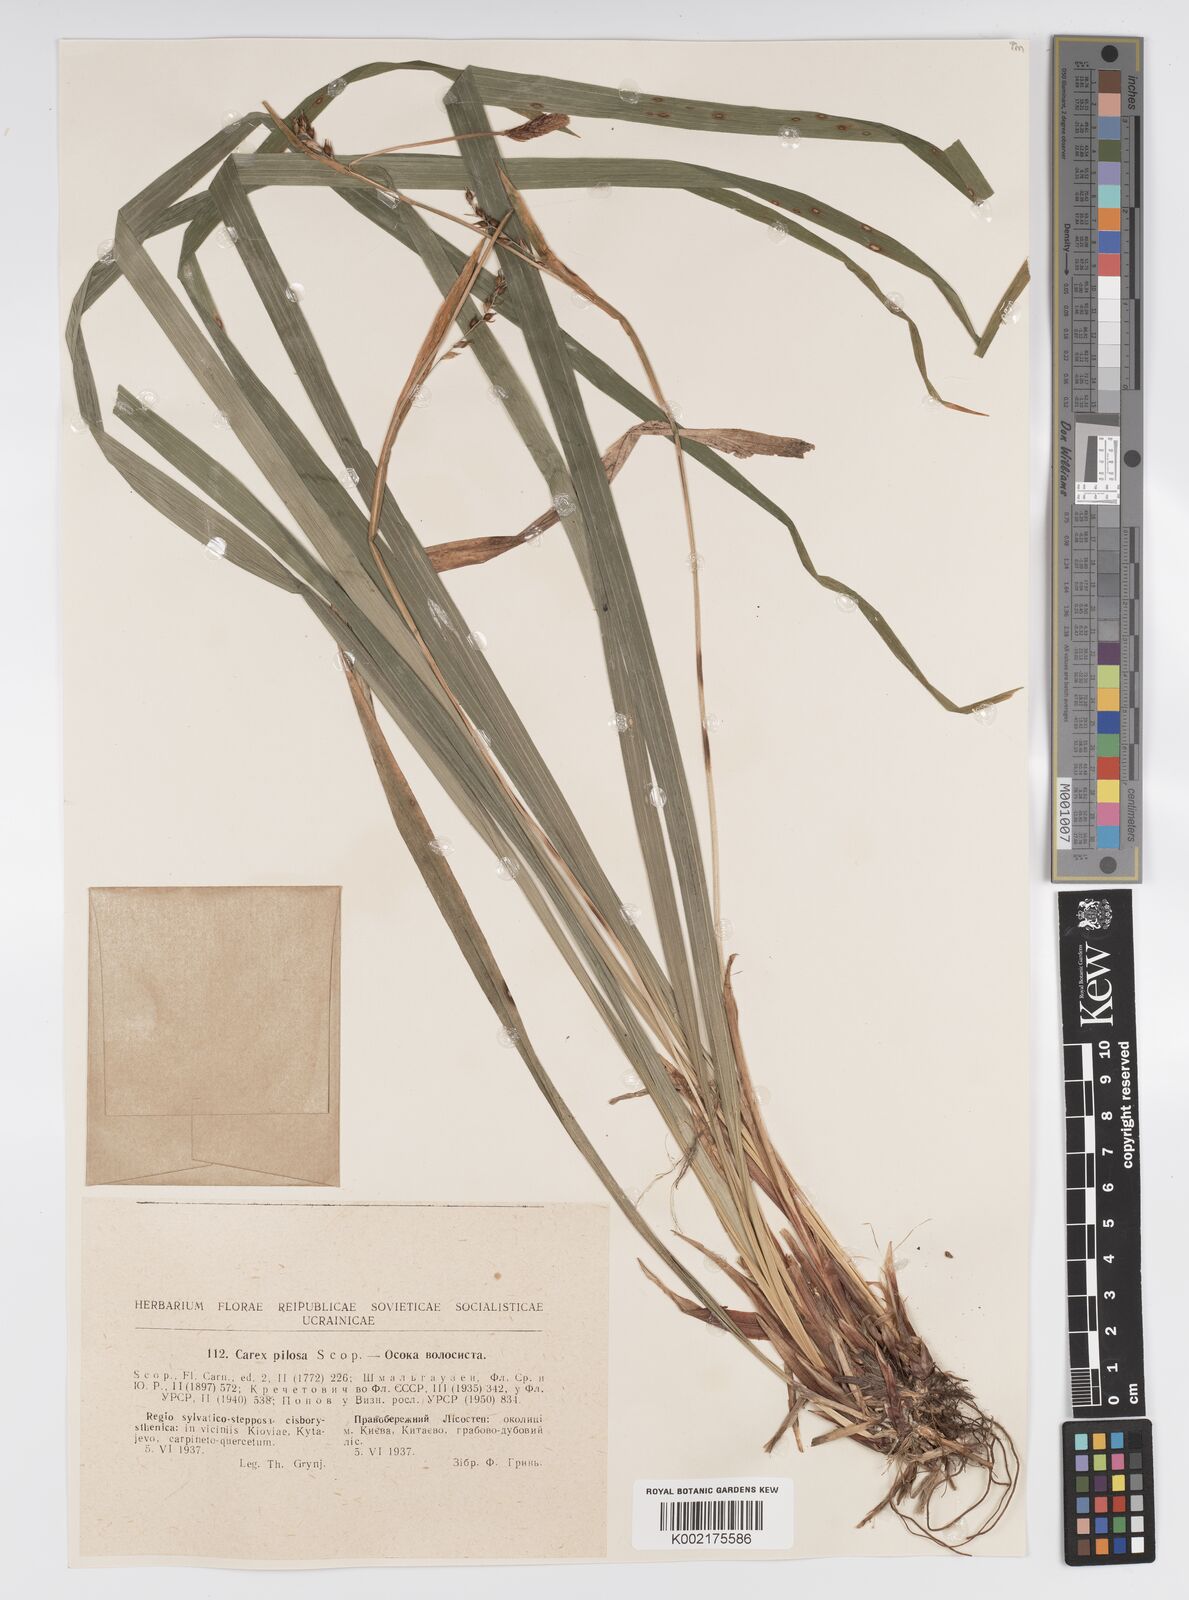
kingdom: Plantae
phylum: Tracheophyta
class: Liliopsida
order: Poales
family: Cyperaceae
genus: Carex
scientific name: Carex pilosa
